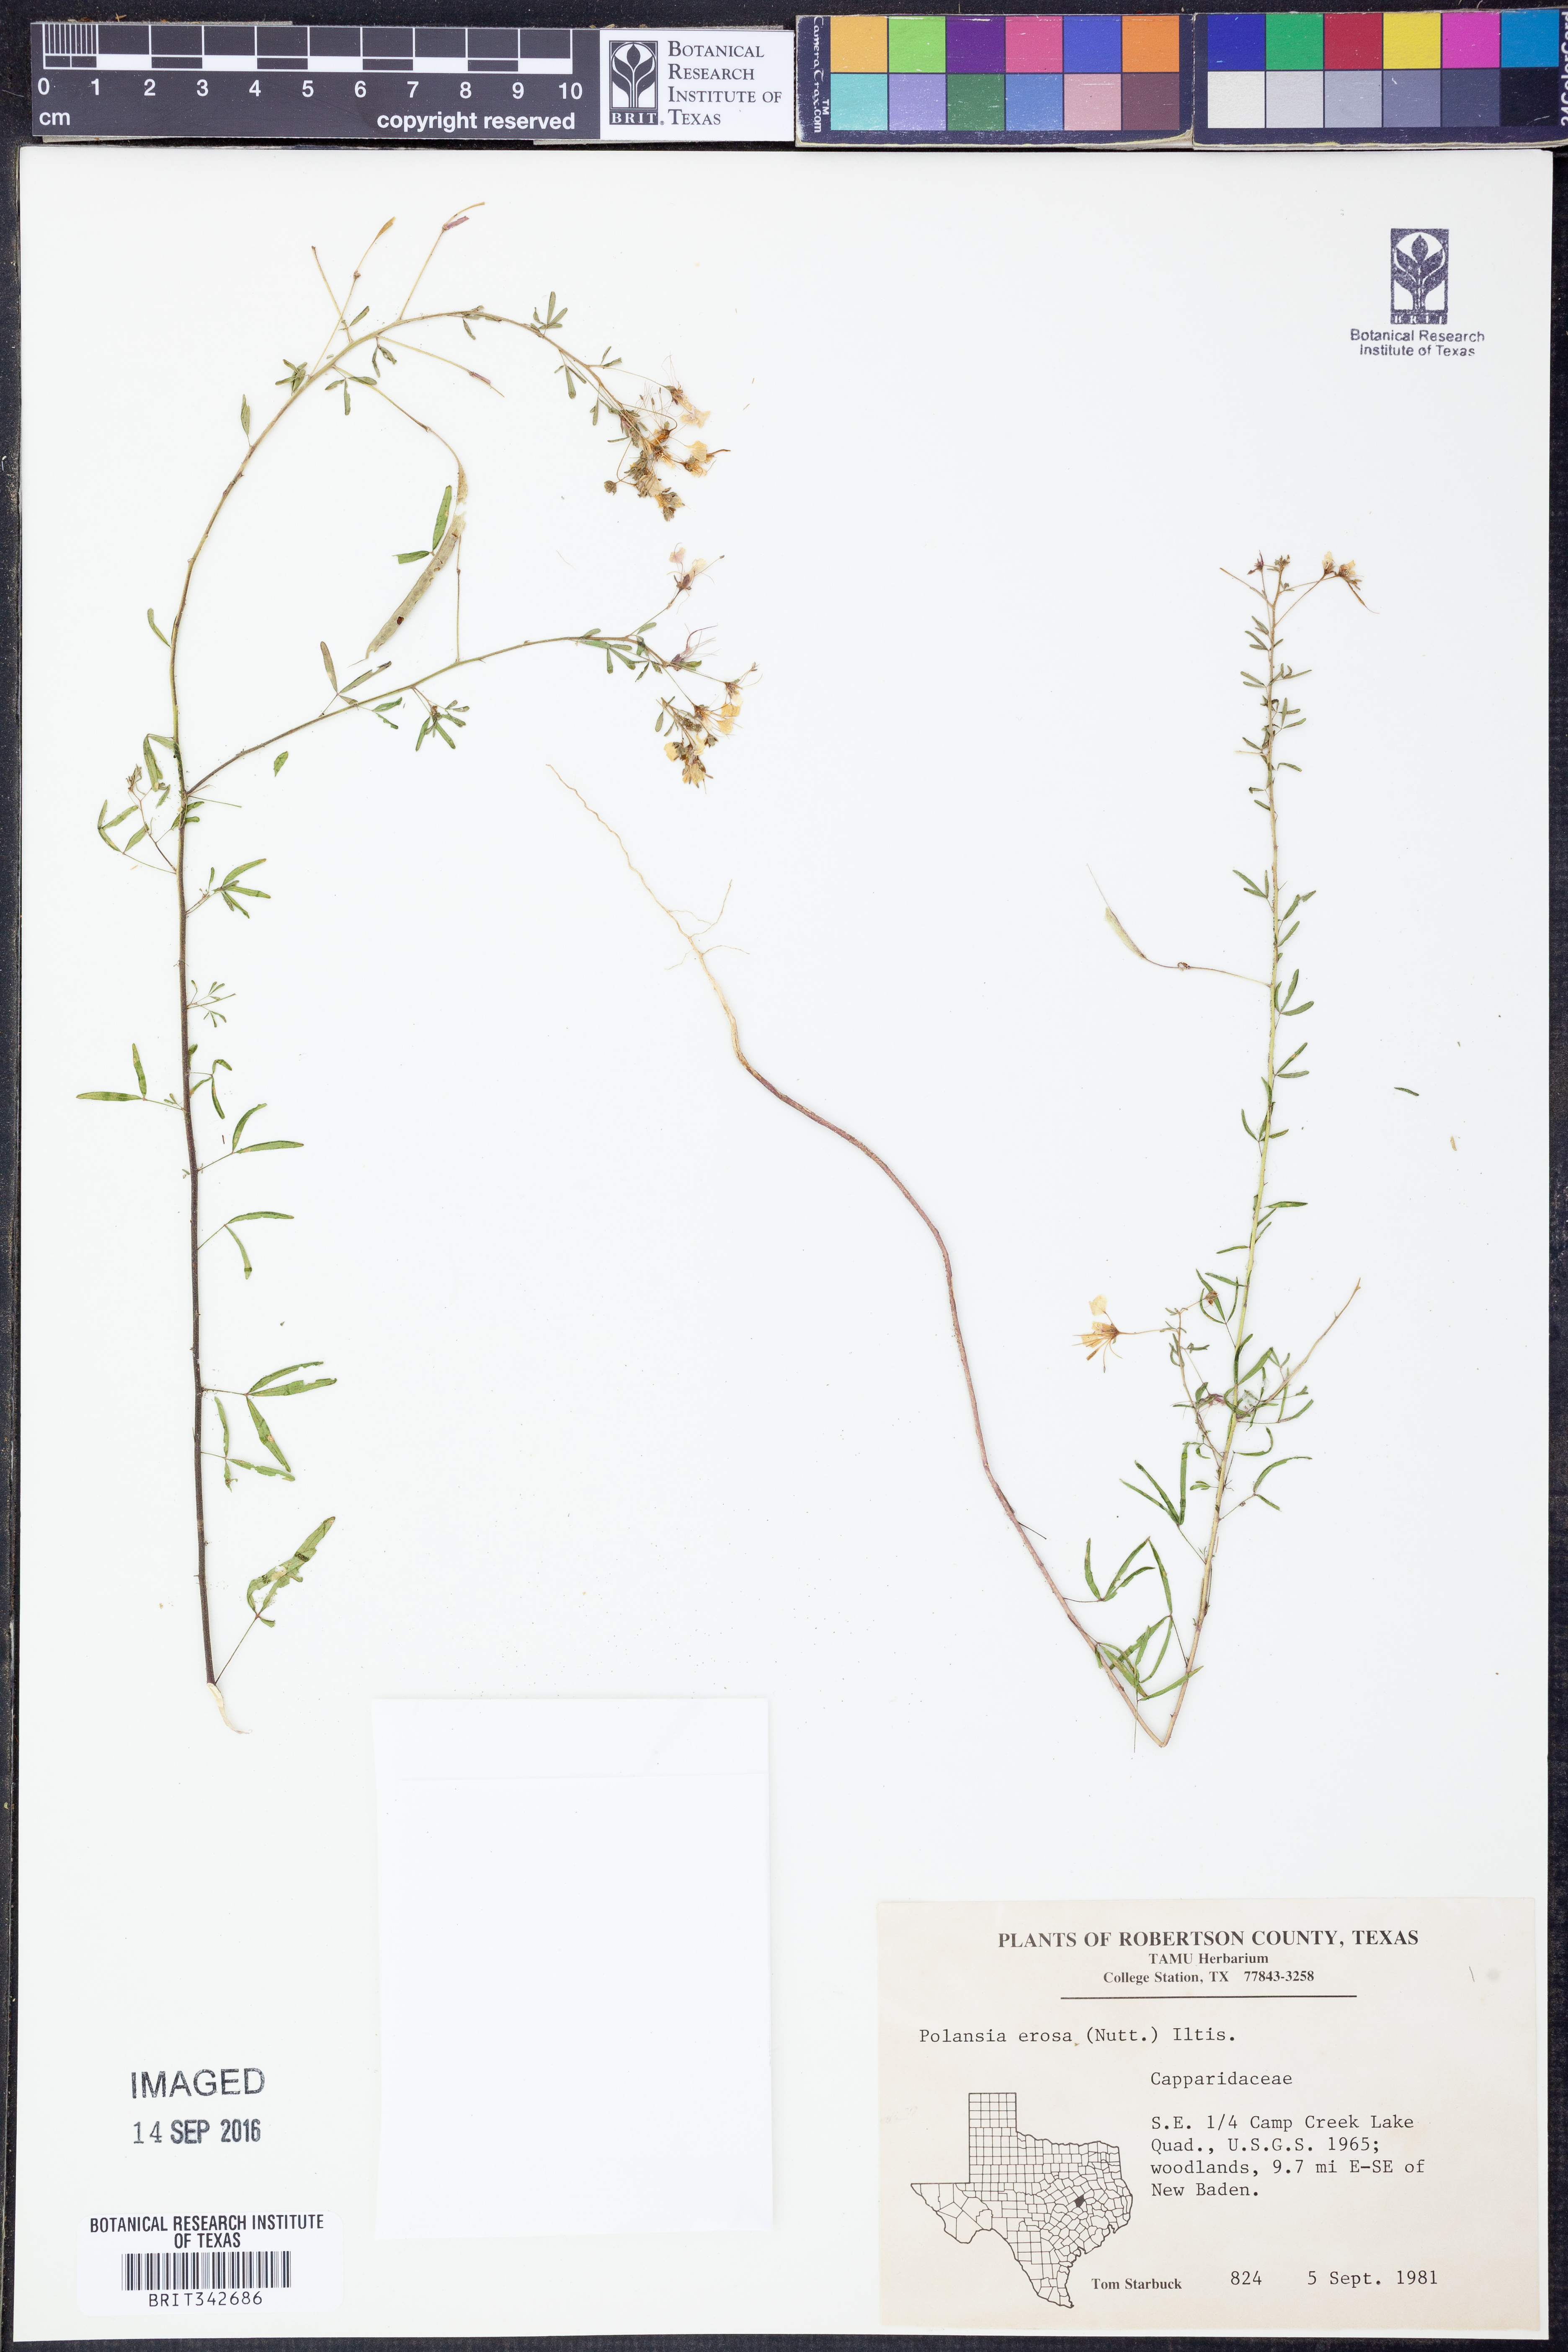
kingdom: Plantae
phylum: Tracheophyta
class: Magnoliopsida
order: Brassicales
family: Cleomaceae
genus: Polanisia
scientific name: Polanisia erosa
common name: Large clammyweed
